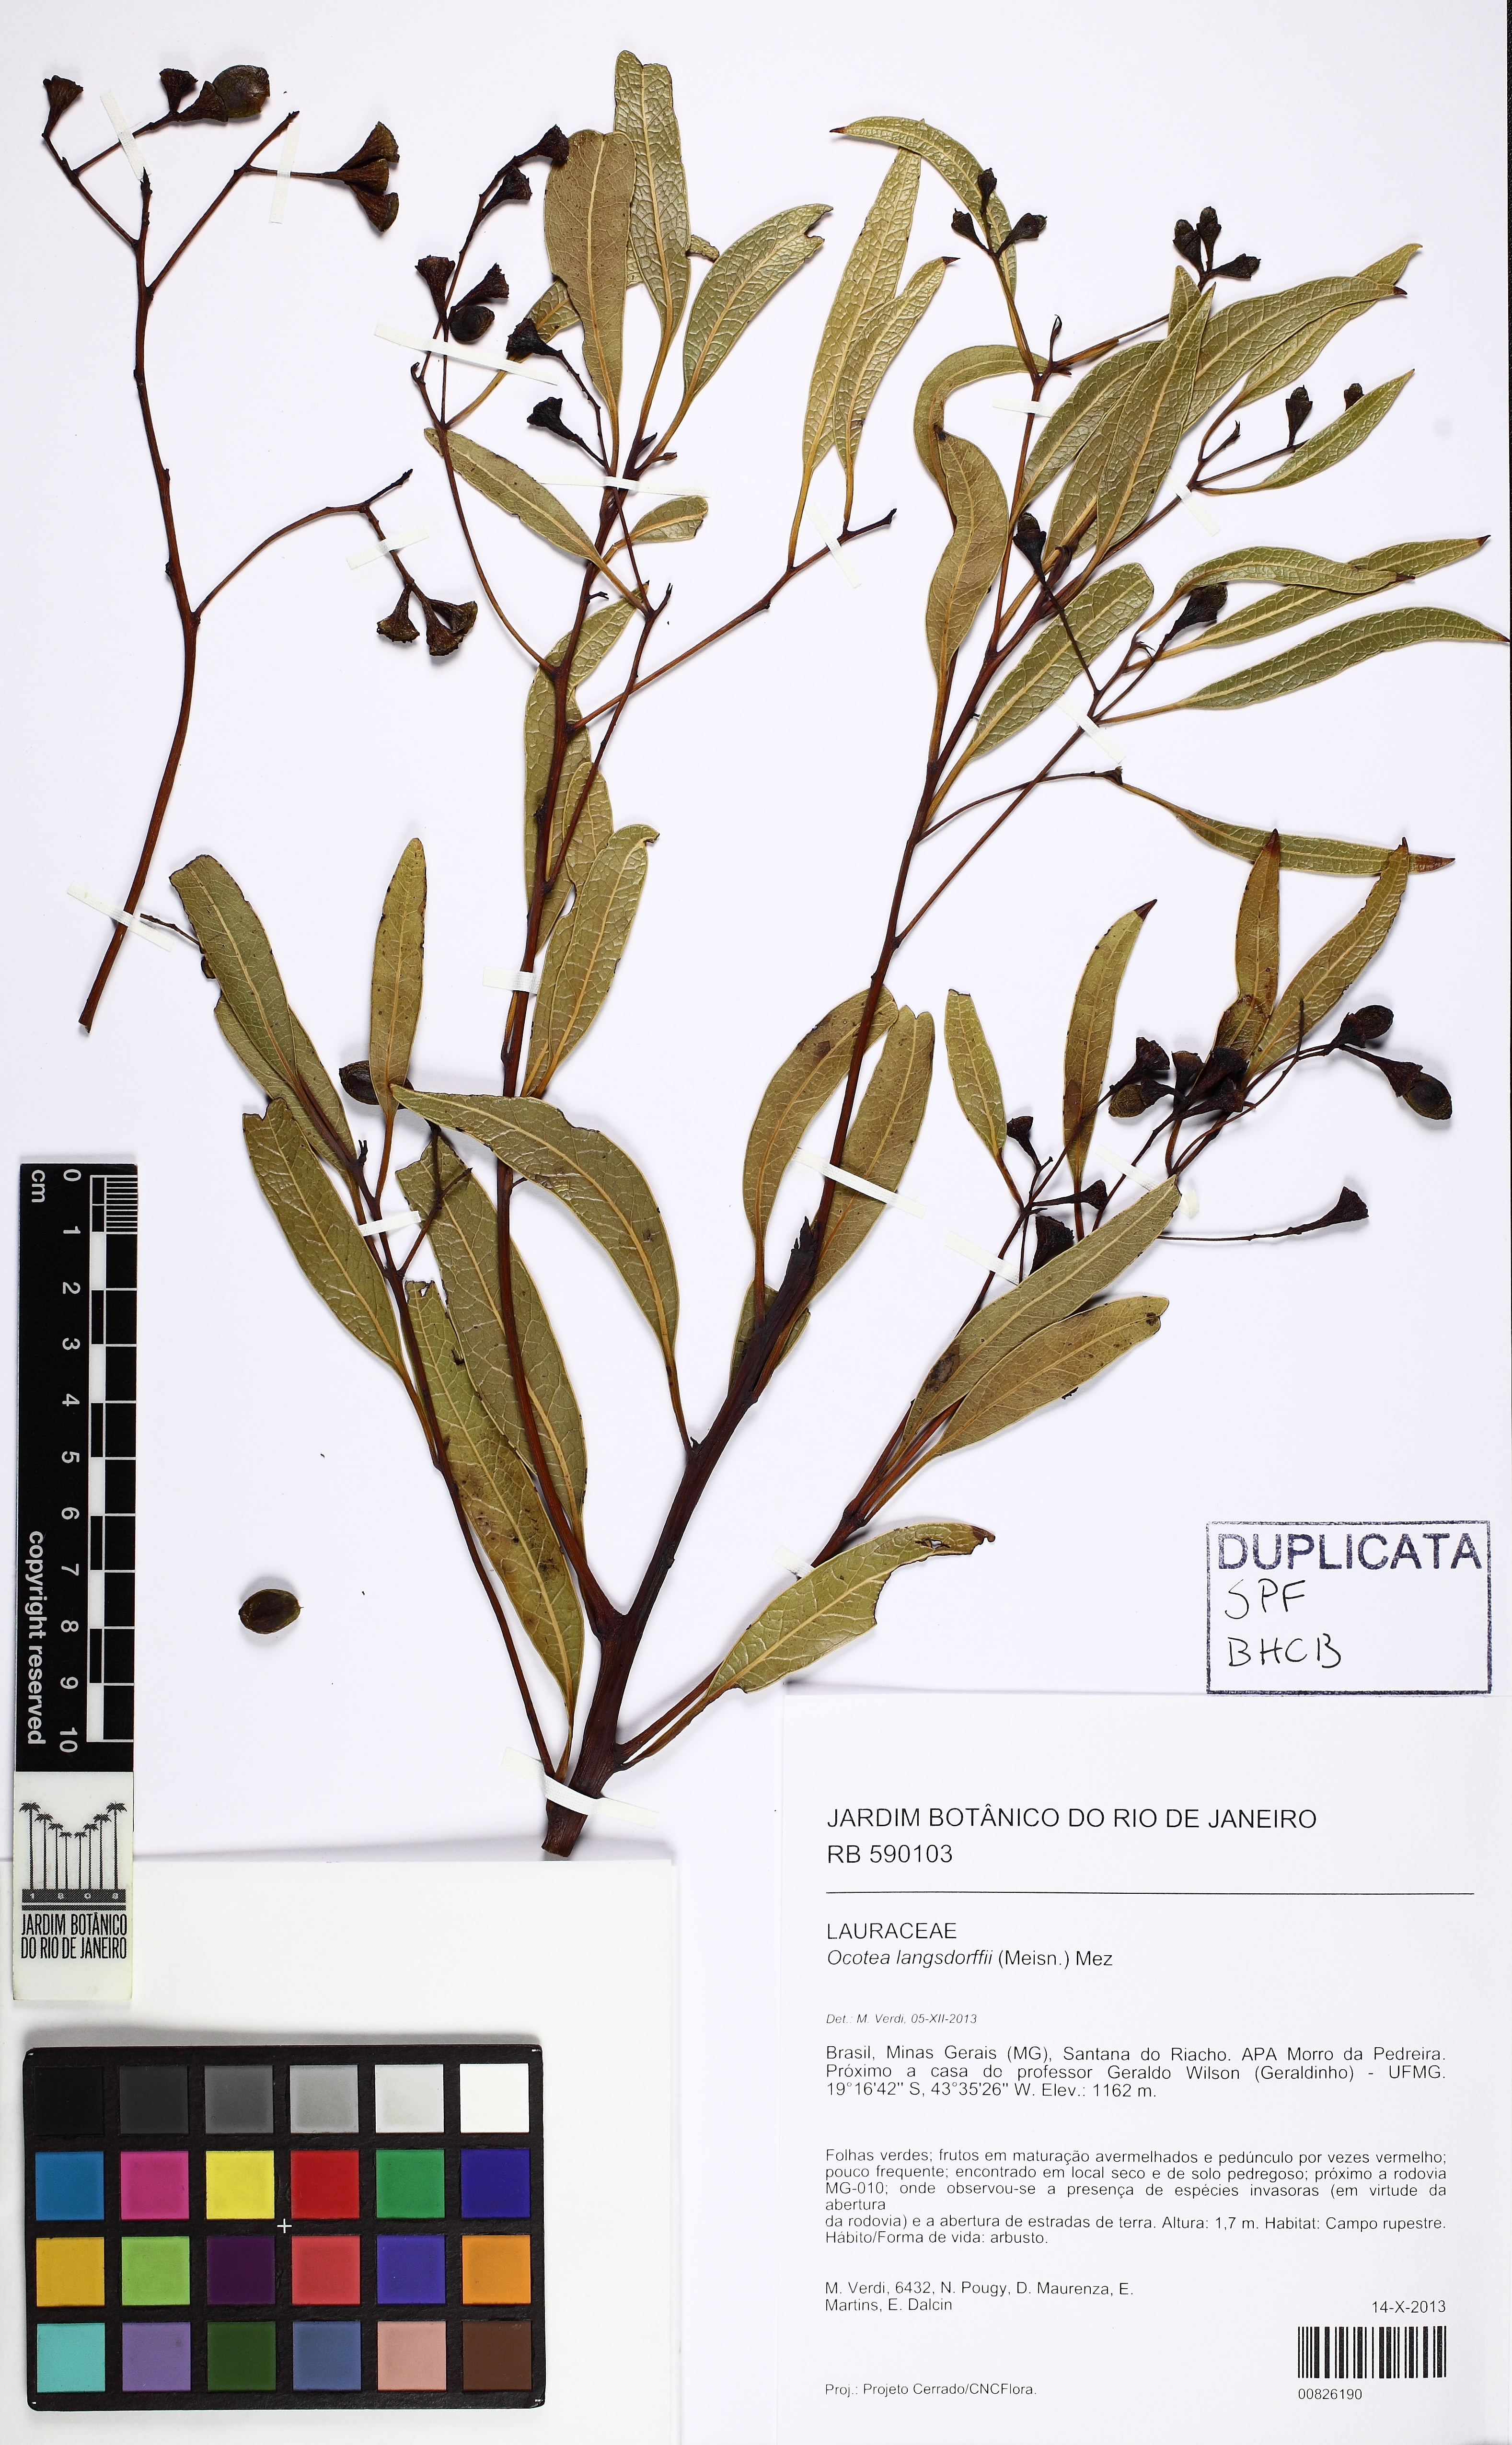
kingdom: Plantae
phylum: Tracheophyta
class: Magnoliopsida
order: Laurales
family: Lauraceae
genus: Ocotea
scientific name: Ocotea langsdorffii
